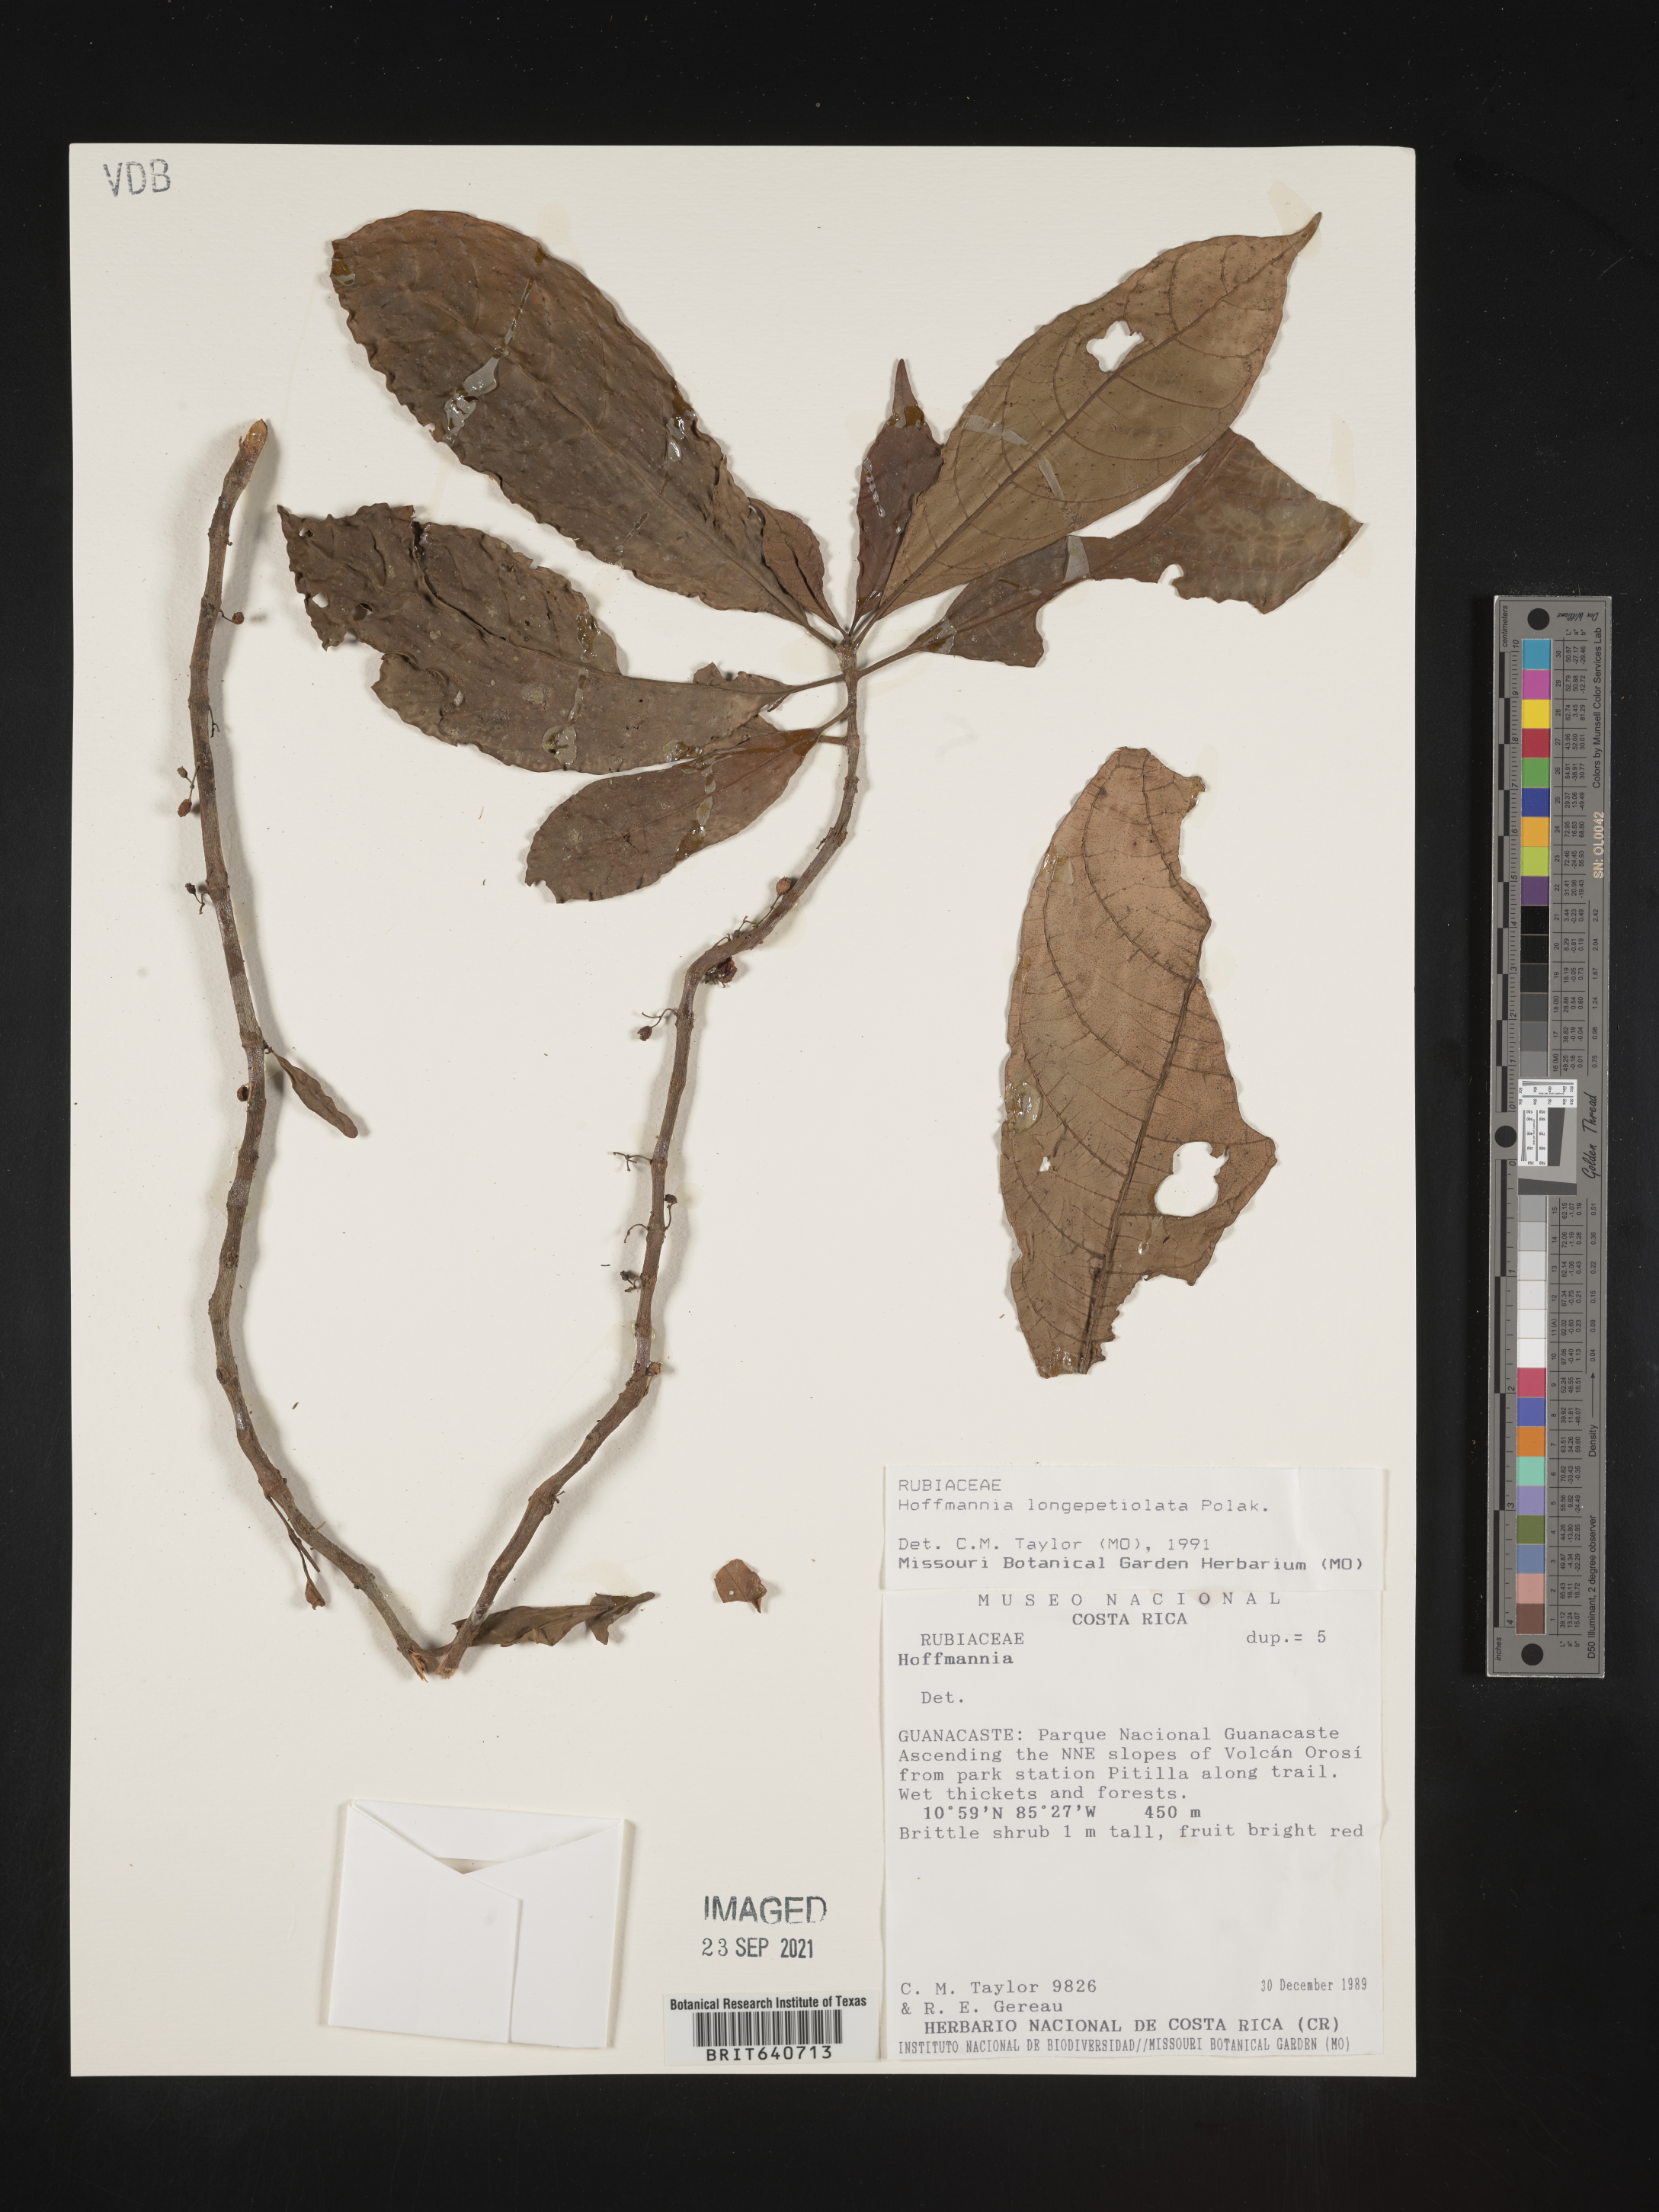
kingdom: Plantae
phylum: Tracheophyta
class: Magnoliopsida
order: Gentianales
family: Rubiaceae
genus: Hoffmannia
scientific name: Hoffmannia
